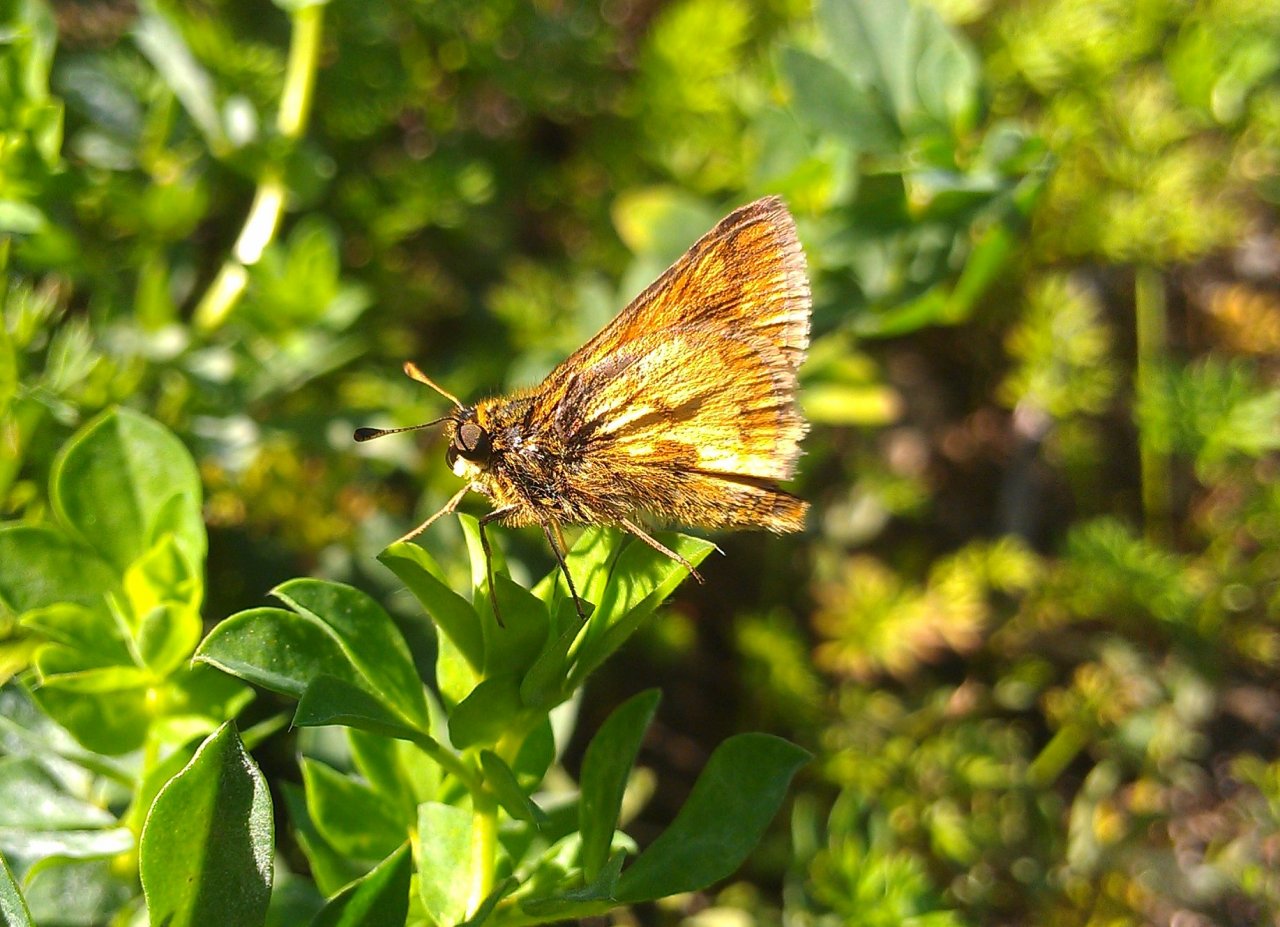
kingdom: Animalia
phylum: Arthropoda
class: Insecta
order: Lepidoptera
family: Hesperiidae
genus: Polites
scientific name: Polites coras
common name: Peck's Skipper
